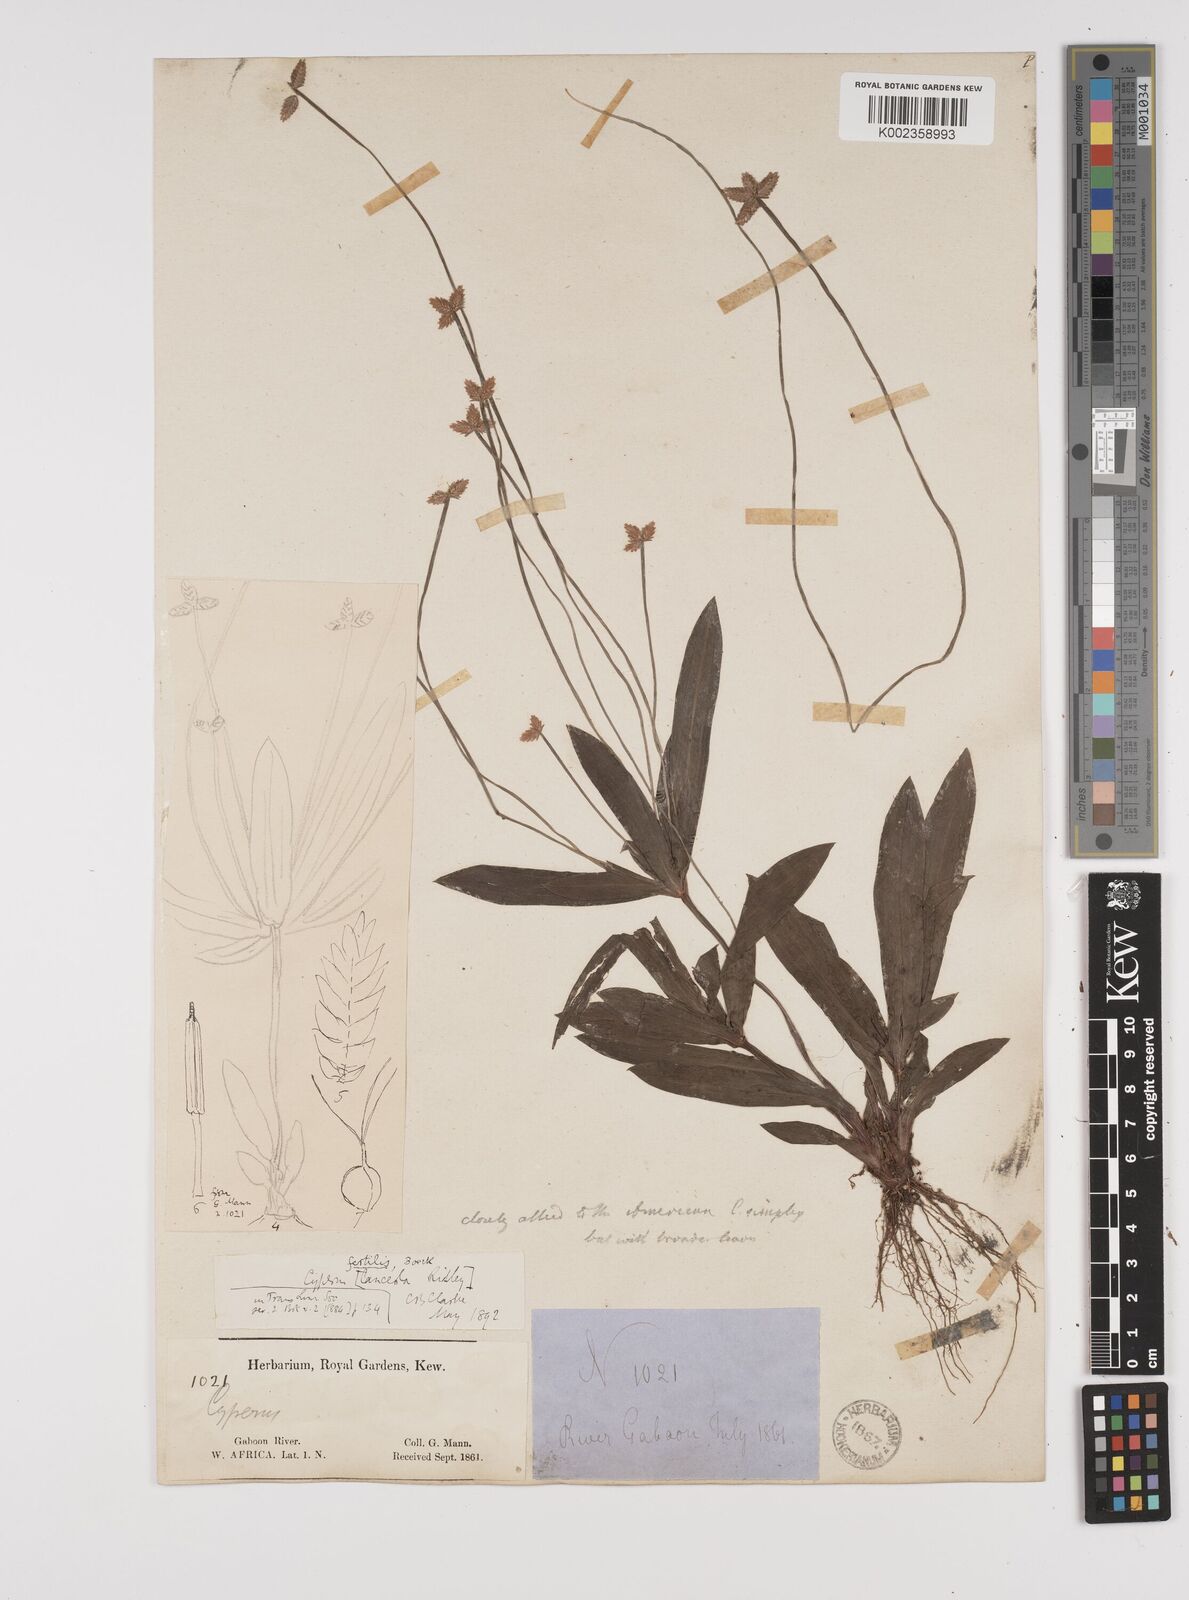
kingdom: Plantae
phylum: Tracheophyta
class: Liliopsida
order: Poales
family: Cyperaceae
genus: Cyperus
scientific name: Cyperus fertilis
